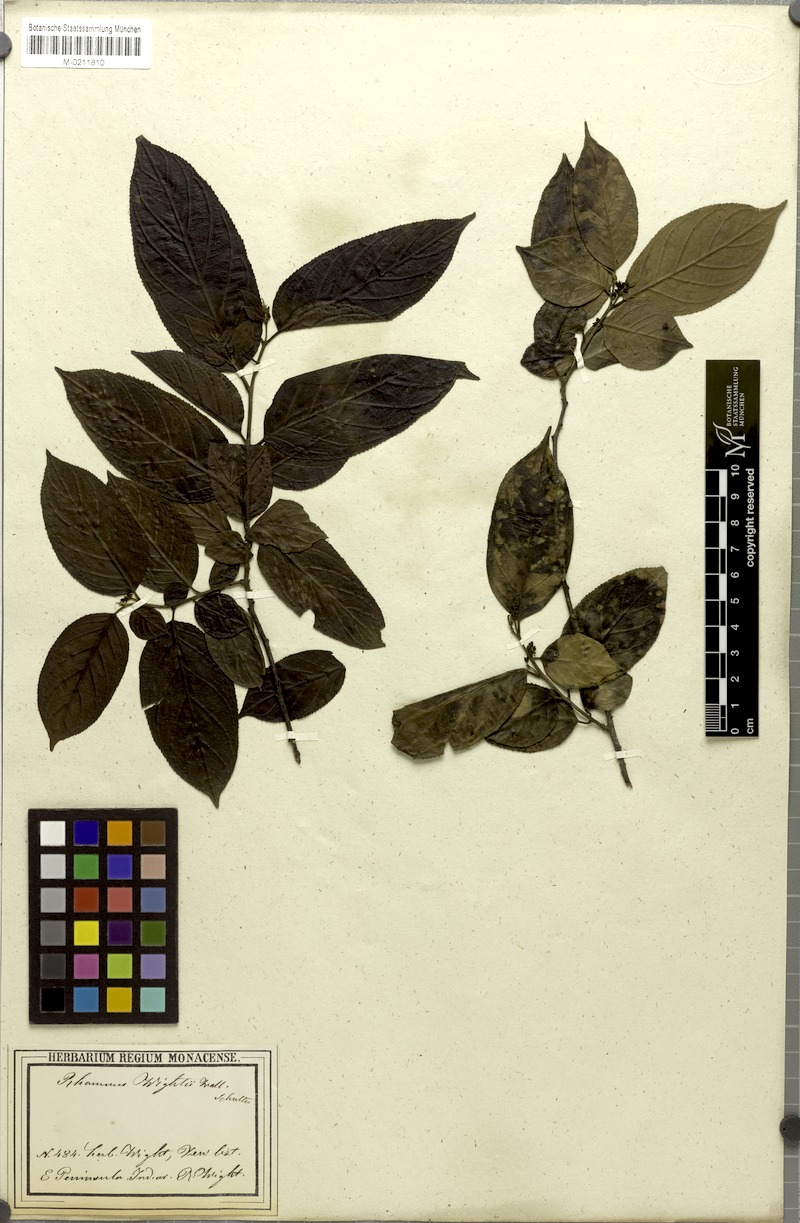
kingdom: Plantae
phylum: Tracheophyta
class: Magnoliopsida
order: Rosales
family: Rhamnaceae
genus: Rhamnus
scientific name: Rhamnus wightii
